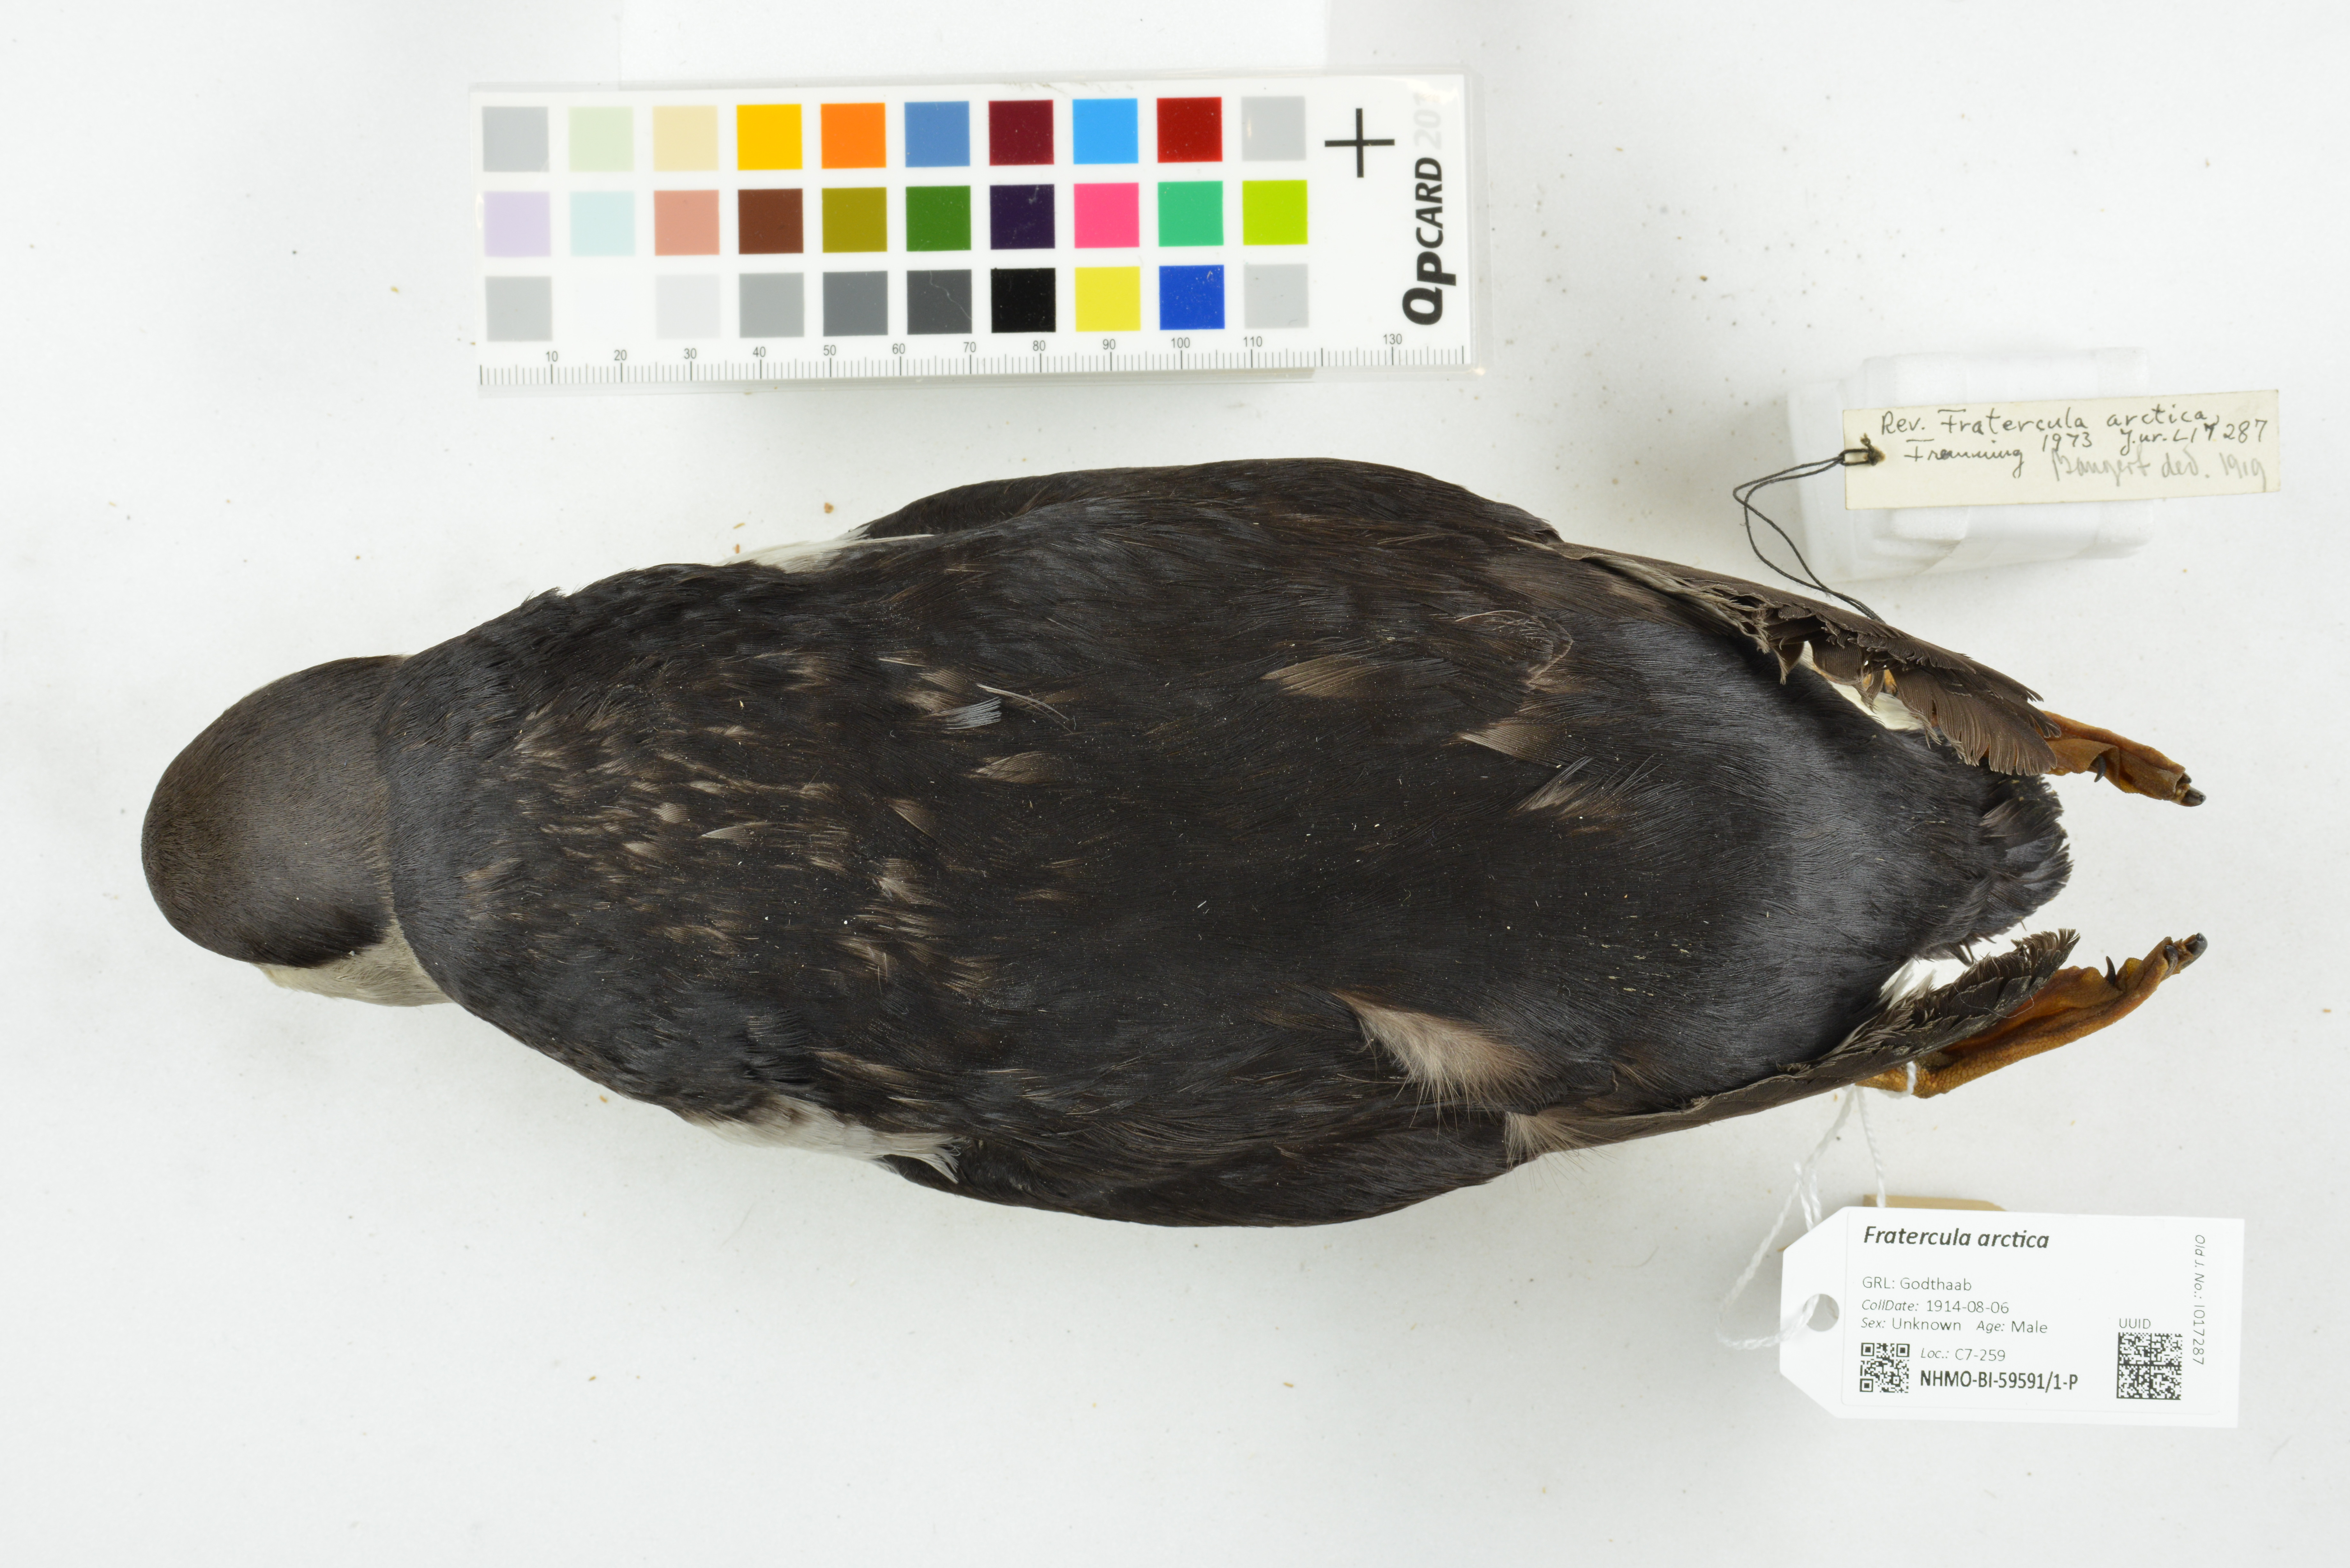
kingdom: Animalia
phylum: Chordata
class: Aves
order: Charadriiformes
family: Alcidae
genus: Fratercula
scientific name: Fratercula arctica
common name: Atlantic puffin
